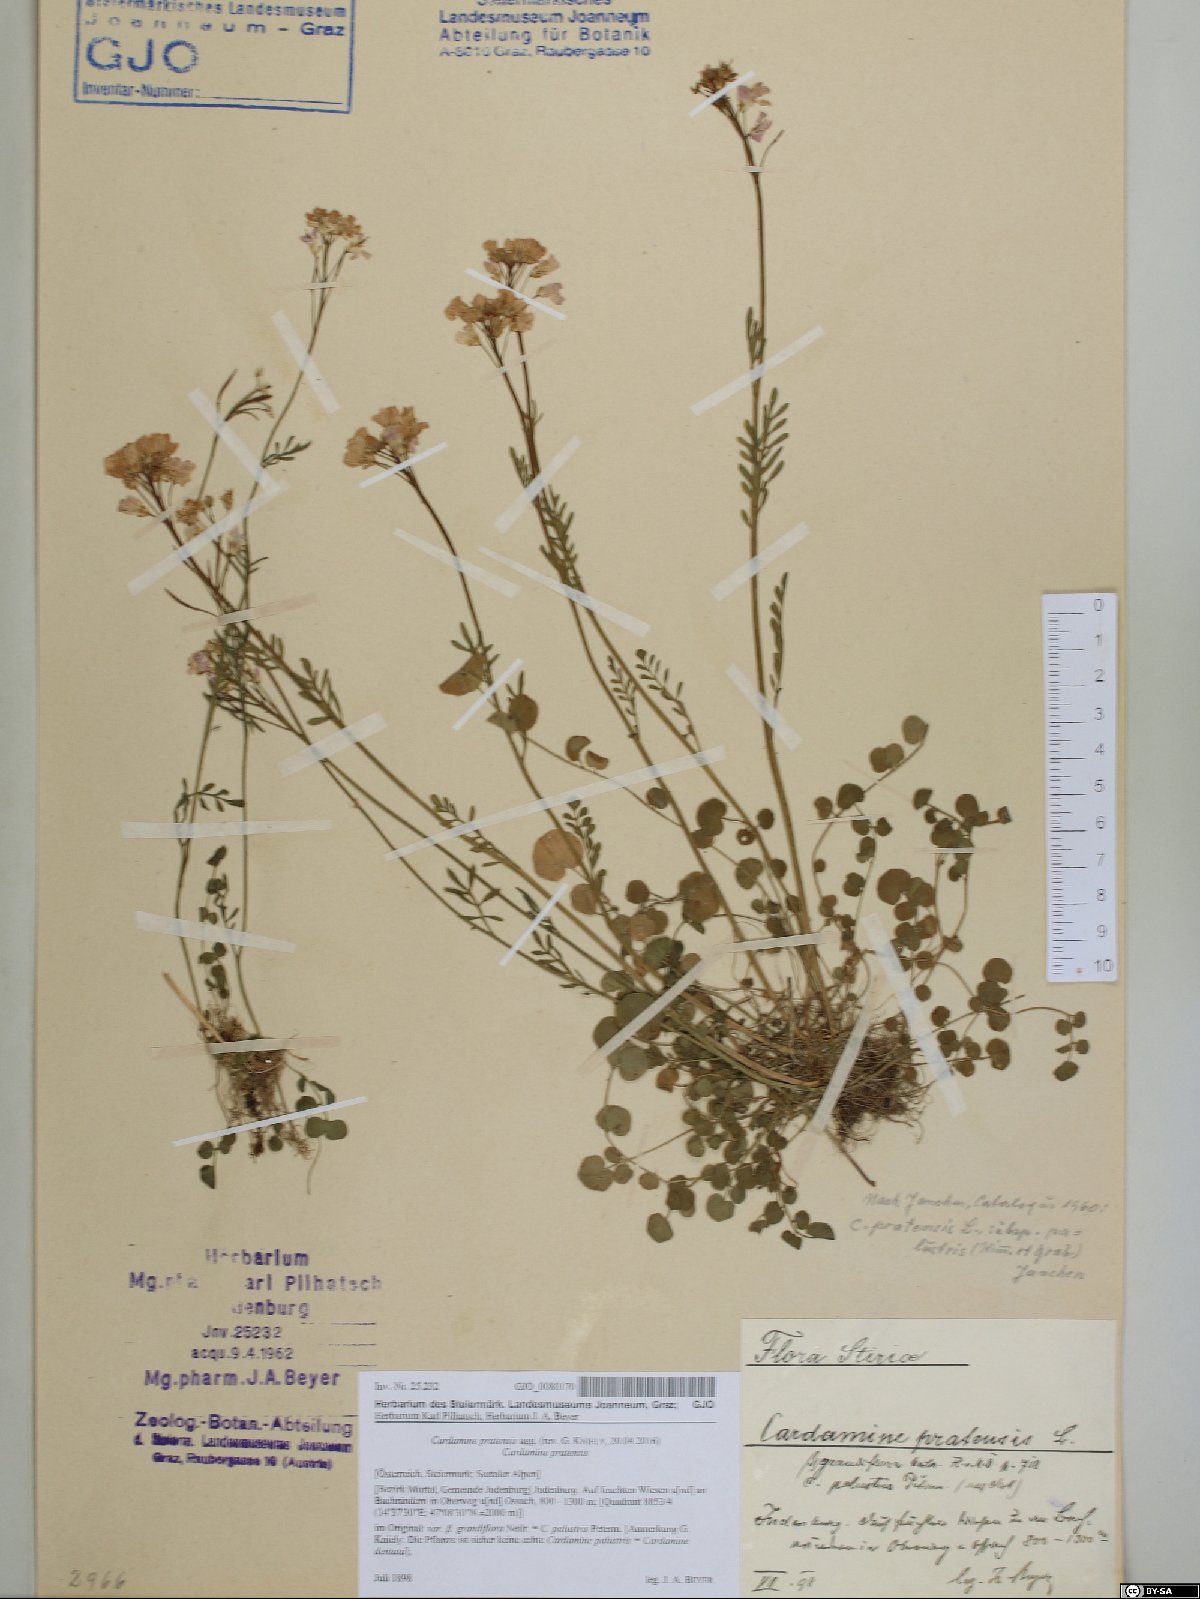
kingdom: Plantae
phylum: Tracheophyta
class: Magnoliopsida
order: Brassicales
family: Brassicaceae
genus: Cardamine
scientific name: Cardamine pratensis
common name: Cuckoo flower
